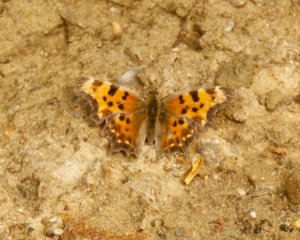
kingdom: Animalia
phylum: Arthropoda
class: Insecta
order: Lepidoptera
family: Nymphalidae
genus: Polygonia
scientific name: Polygonia faunus
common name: Green Comma
